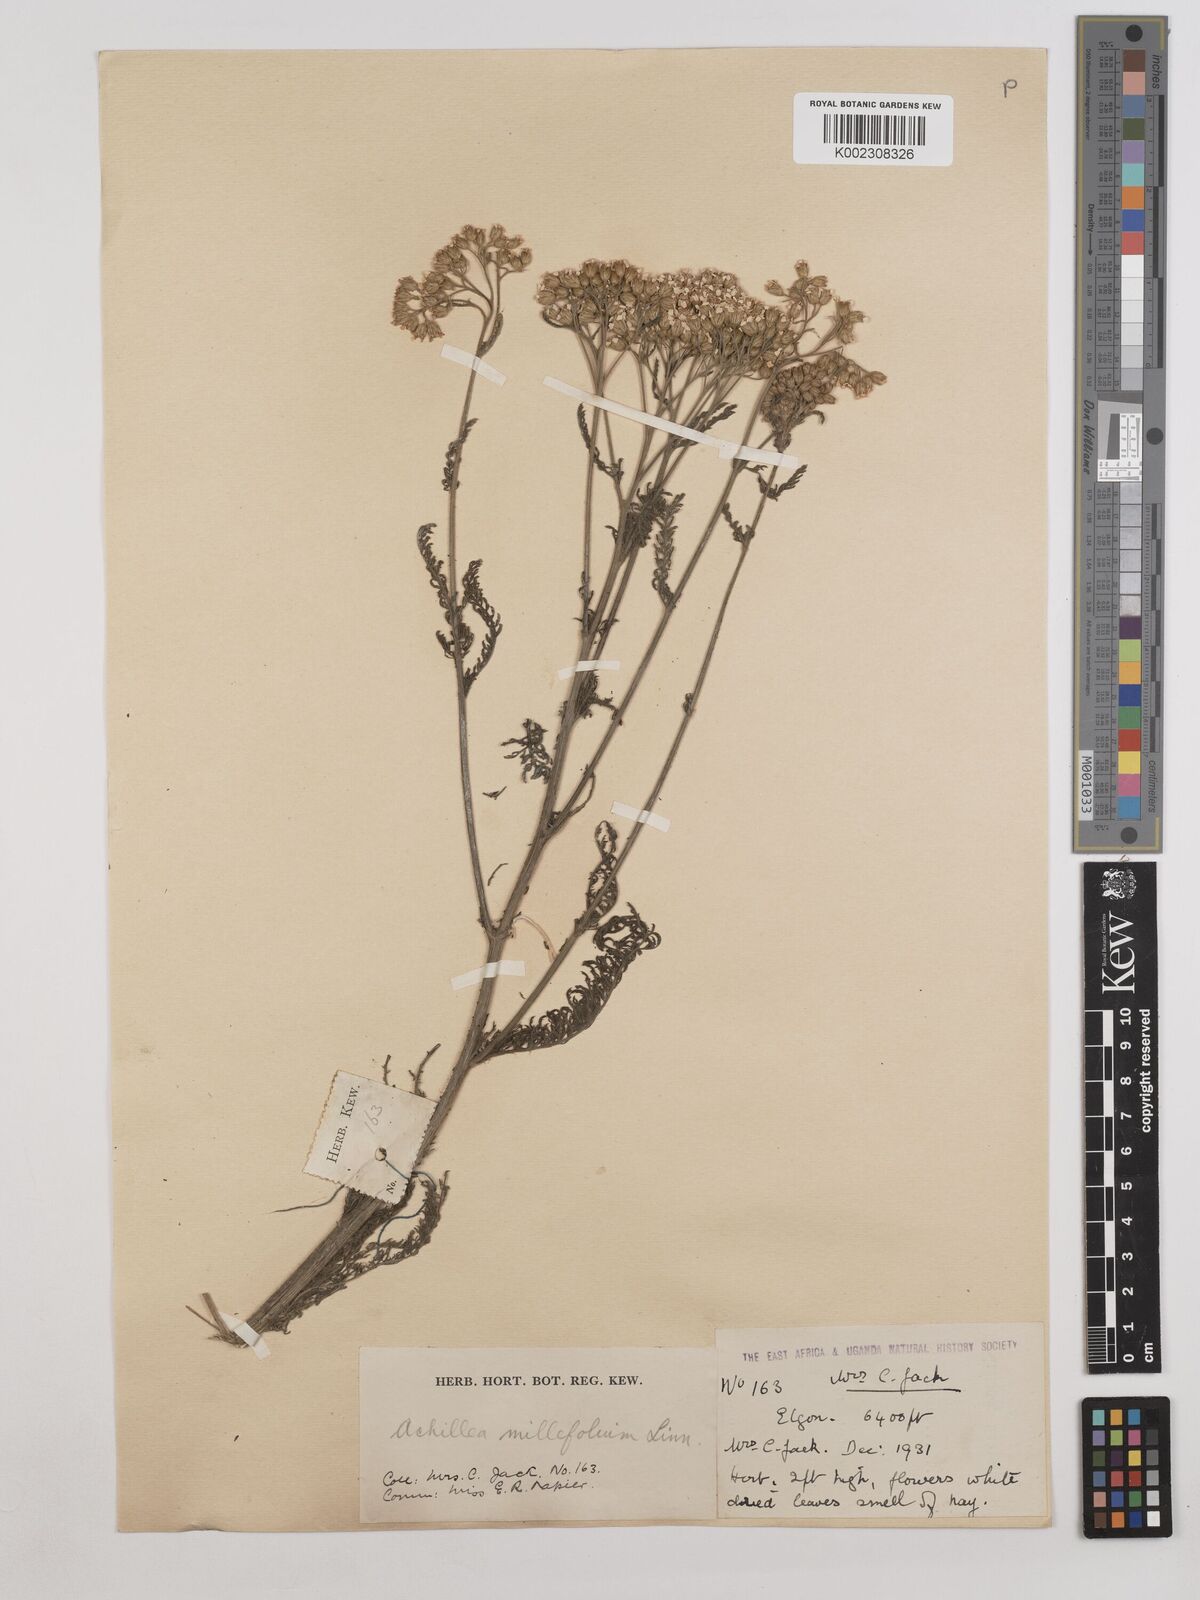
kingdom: Plantae
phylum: Tracheophyta
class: Magnoliopsida
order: Asterales
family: Asteraceae
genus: Achillea
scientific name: Achillea millefolium
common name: Yarrow
